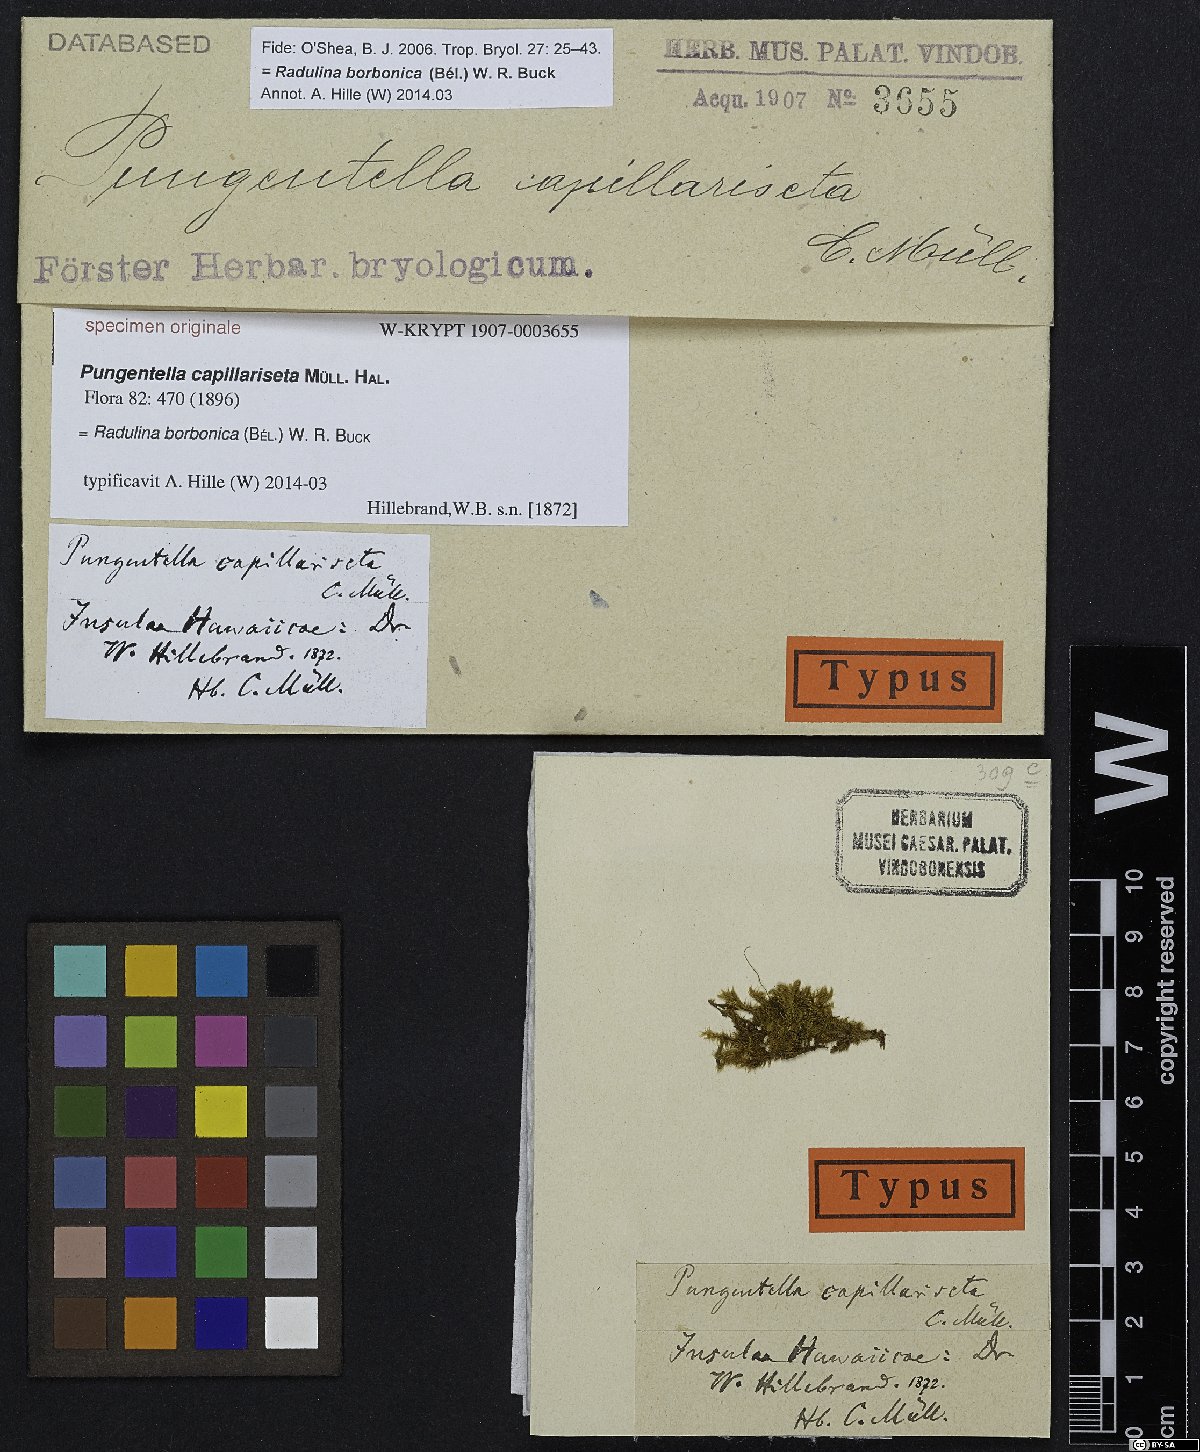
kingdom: Animalia
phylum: Nematoda
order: Dorylaimida
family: Nordiidae
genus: Pungentella
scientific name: Pungentella
